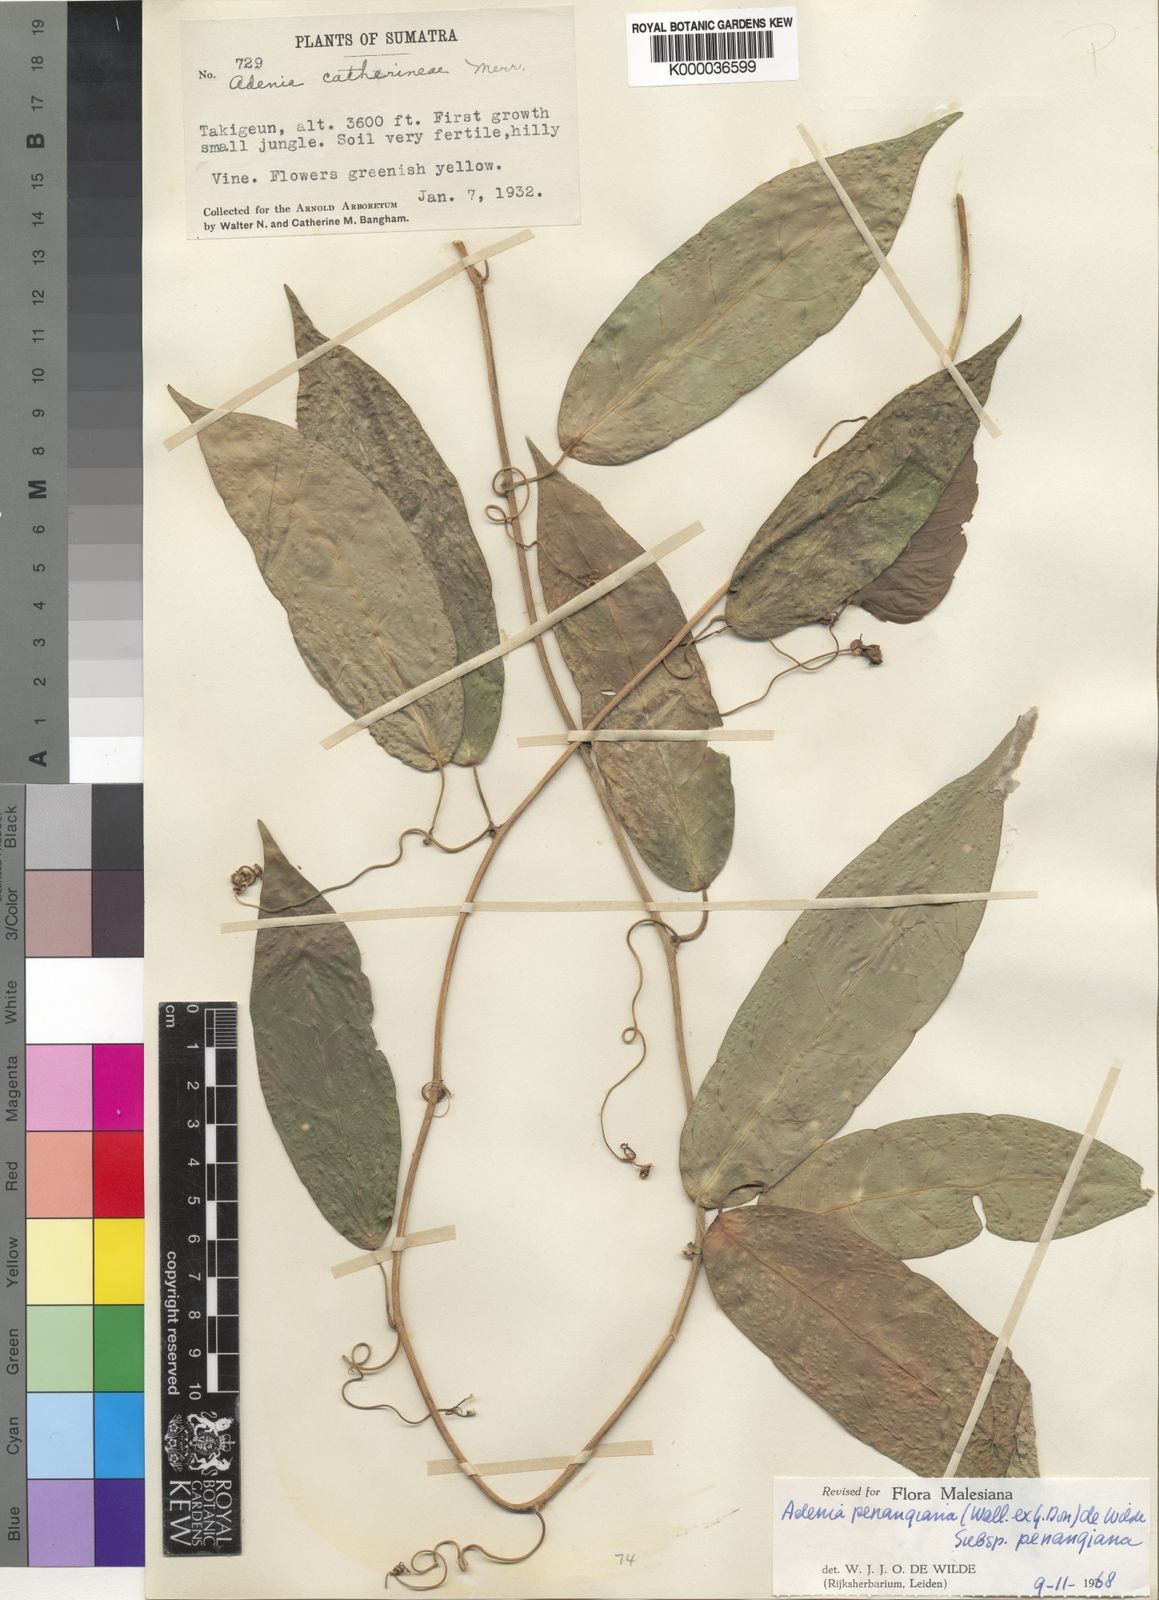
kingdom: Plantae
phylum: Tracheophyta
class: Magnoliopsida
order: Malpighiales
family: Passifloraceae
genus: Adenia
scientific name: Adenia penangiana
